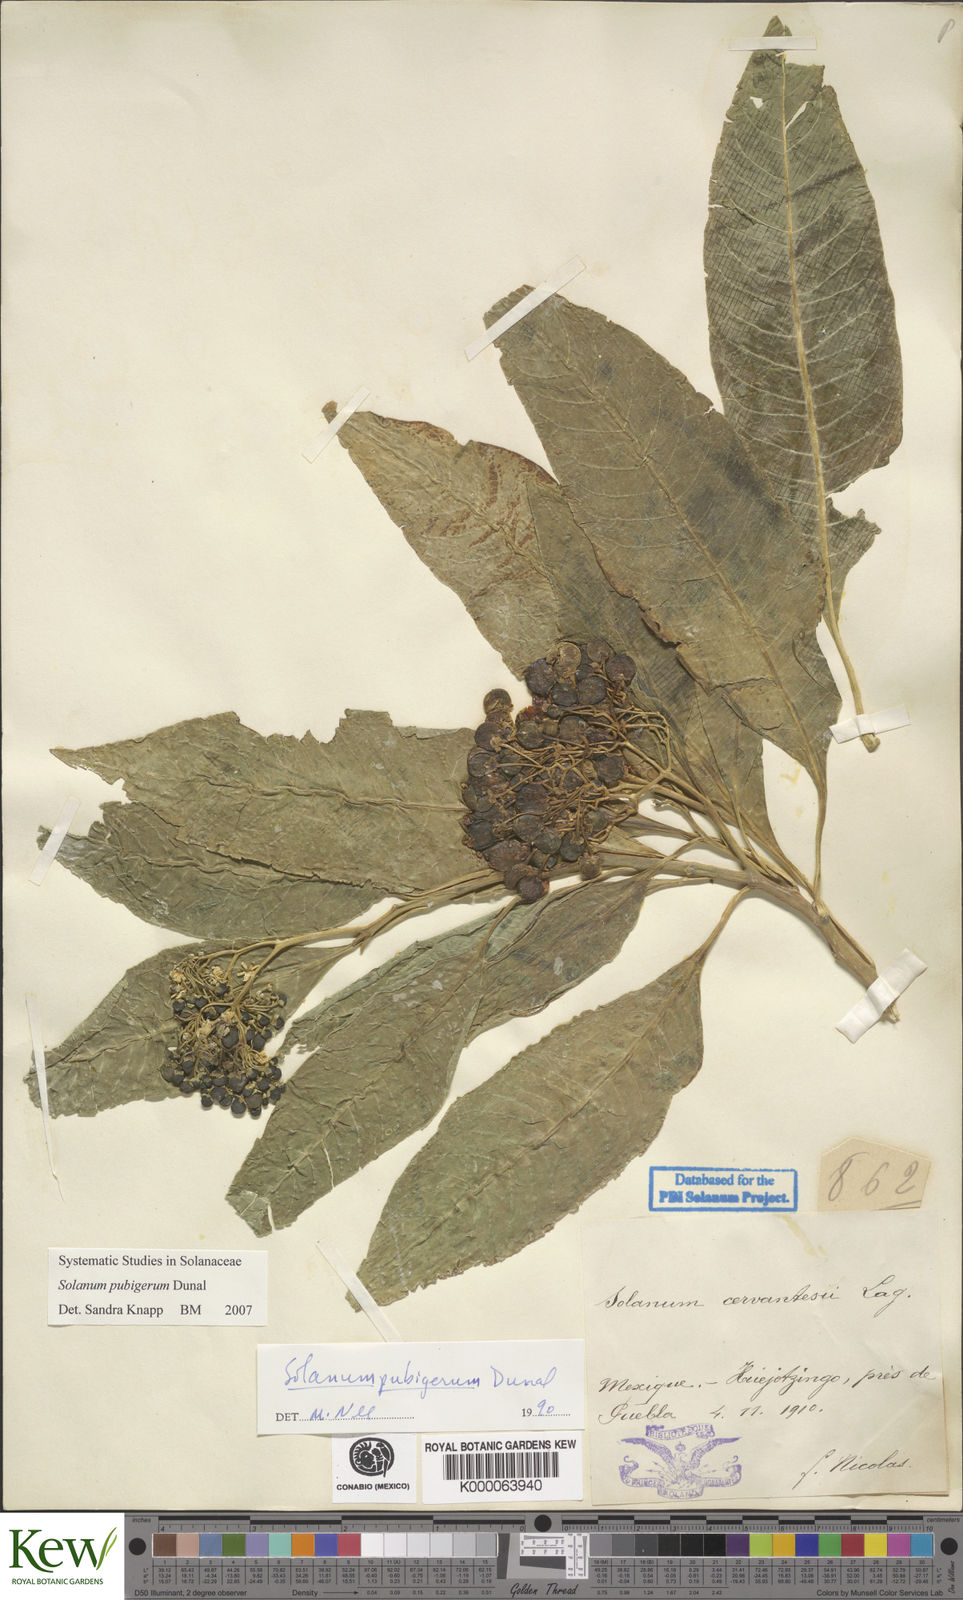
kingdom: Plantae
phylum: Tracheophyta
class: Magnoliopsida
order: Solanales
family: Solanaceae
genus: Solanum
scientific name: Solanum pubigerum
